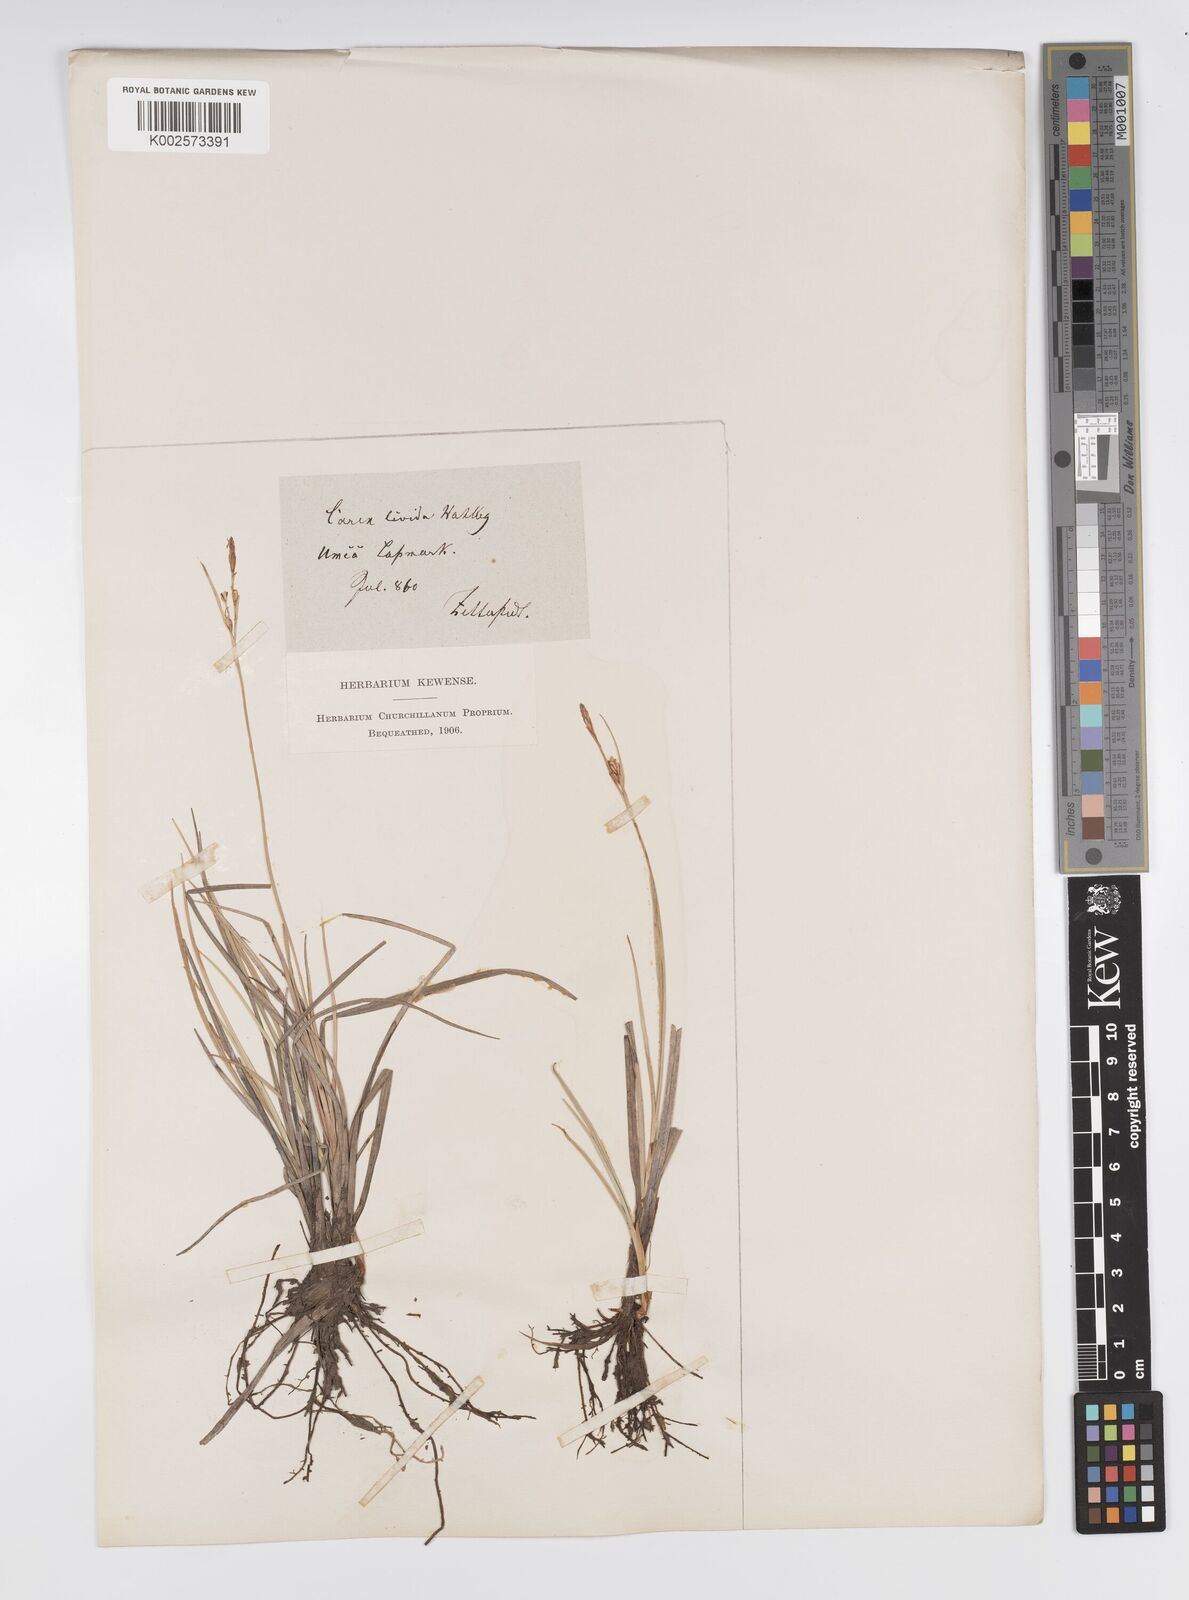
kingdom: Plantae
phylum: Tracheophyta
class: Liliopsida
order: Poales
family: Cyperaceae
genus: Carex
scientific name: Carex livida
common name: Livid sedge
